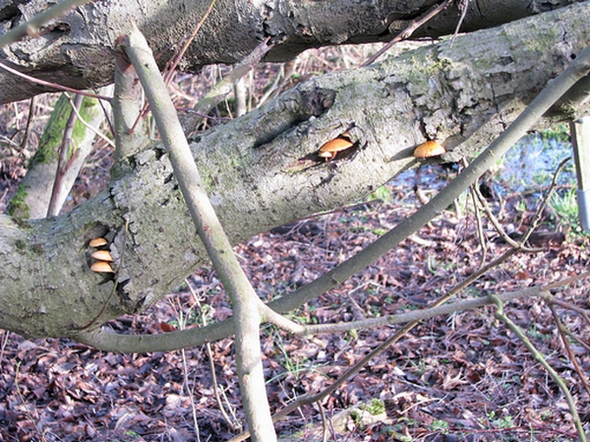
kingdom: Fungi
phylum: Basidiomycota
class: Agaricomycetes
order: Agaricales
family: Physalacriaceae
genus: Flammulina
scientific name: Flammulina elastica
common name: pile-fløjlsfod
